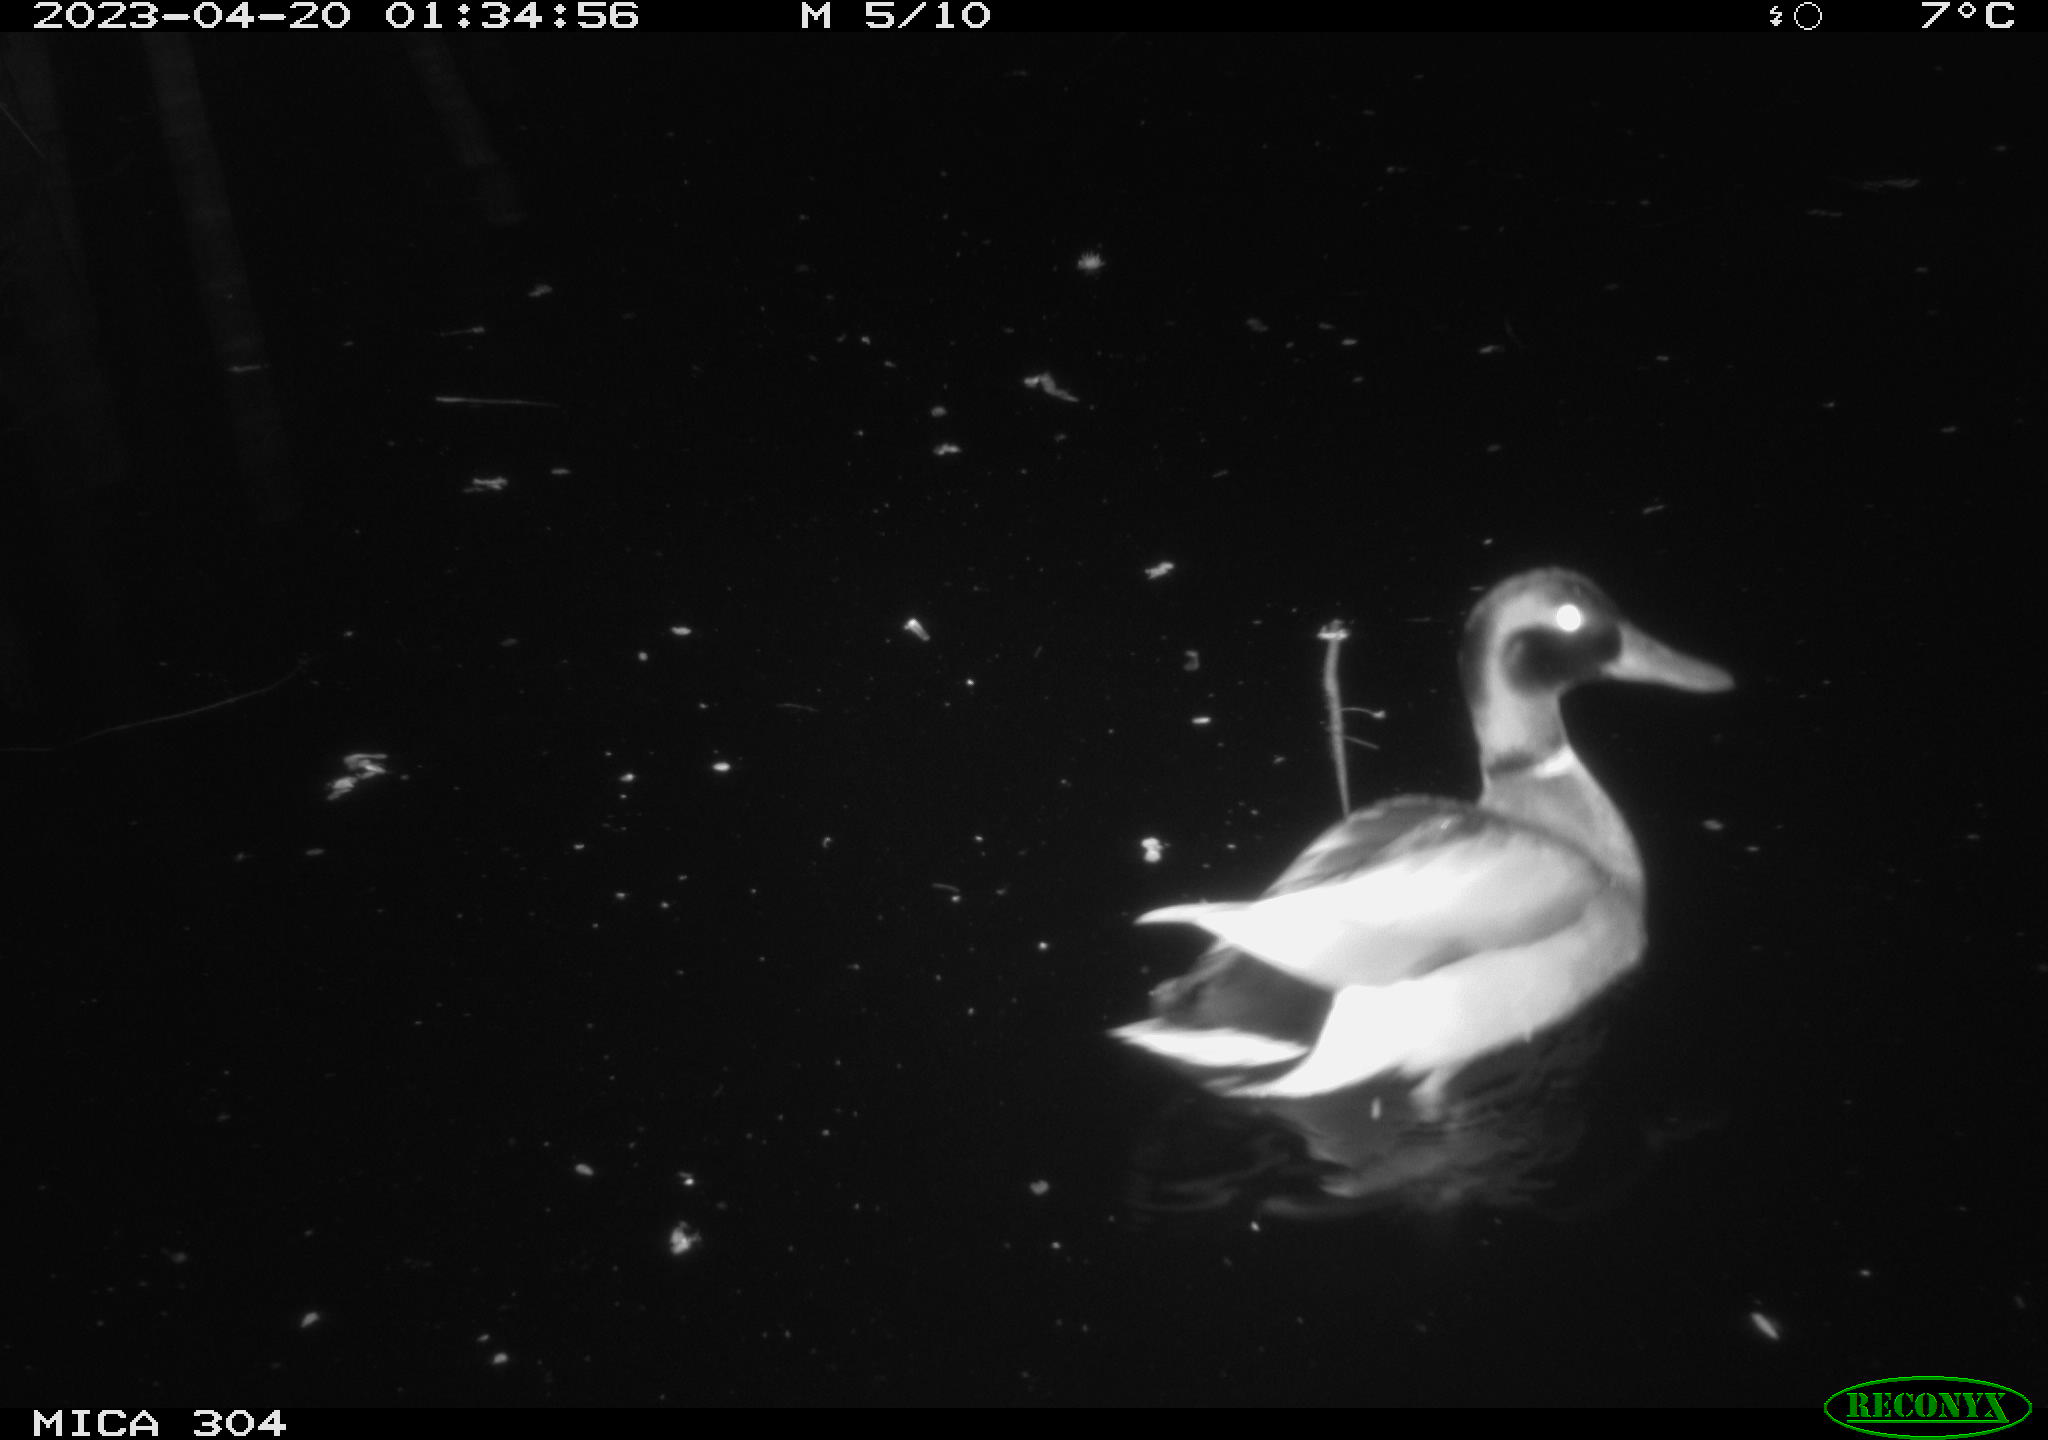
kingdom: Animalia
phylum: Chordata
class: Aves
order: Anseriformes
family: Anatidae
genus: Anas
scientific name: Anas
